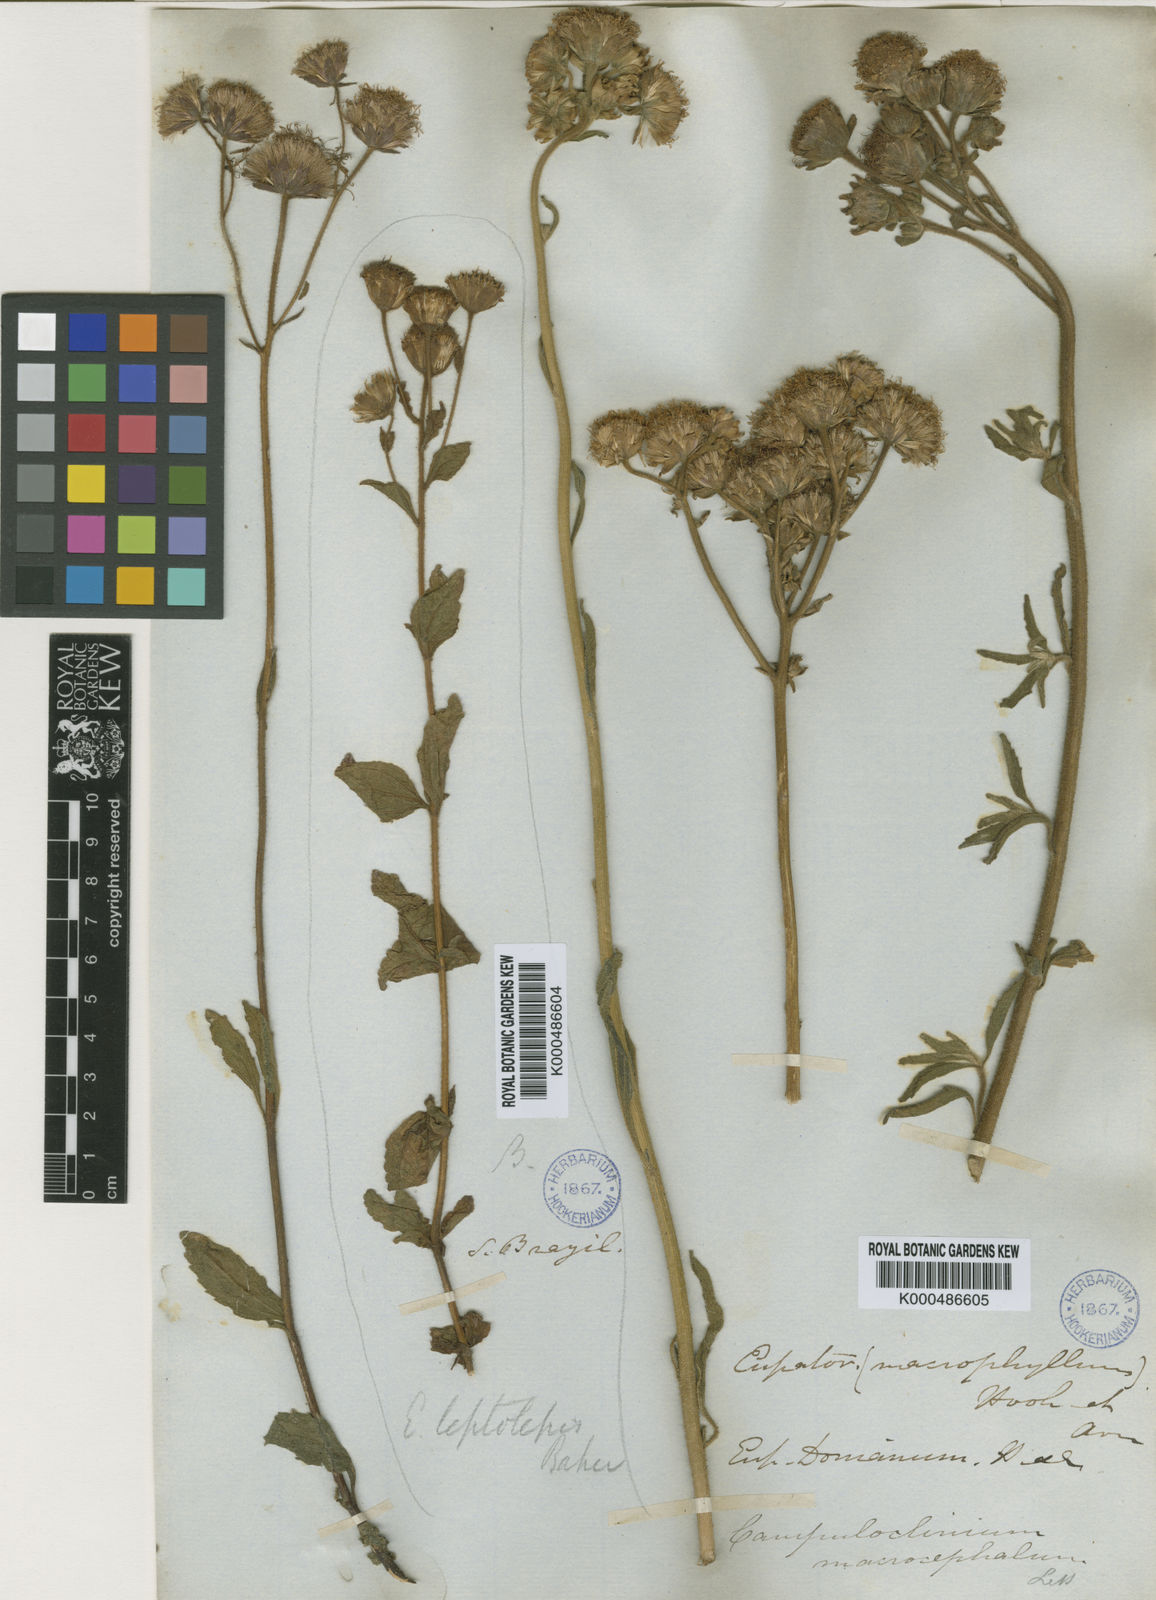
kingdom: Plantae
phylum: Tracheophyta
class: Magnoliopsida
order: Asterales
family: Asteraceae
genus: Heterocondylus
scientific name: Heterocondylus leptolepis
